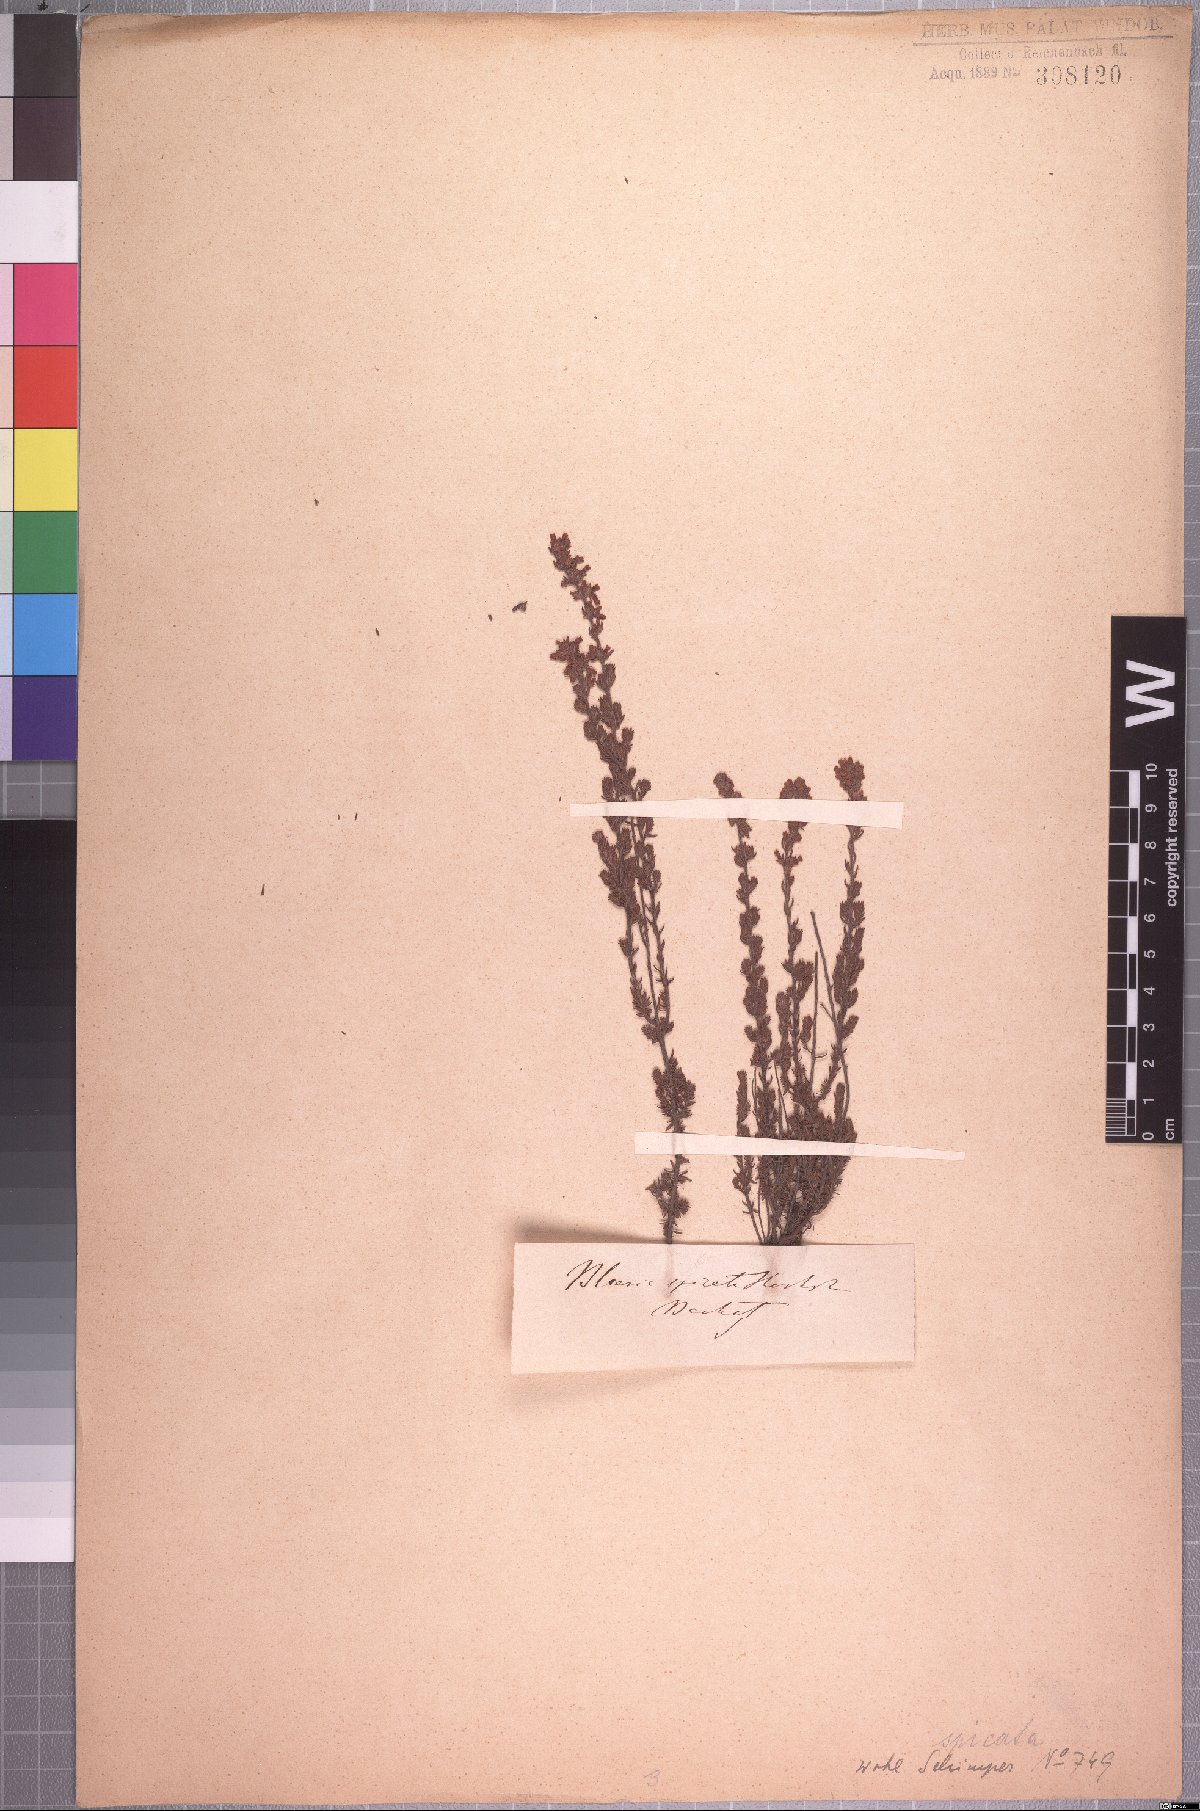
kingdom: Plantae
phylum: Tracheophyta
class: Magnoliopsida
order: Ericales
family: Ericaceae
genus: Erica
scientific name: Erica silvatica
